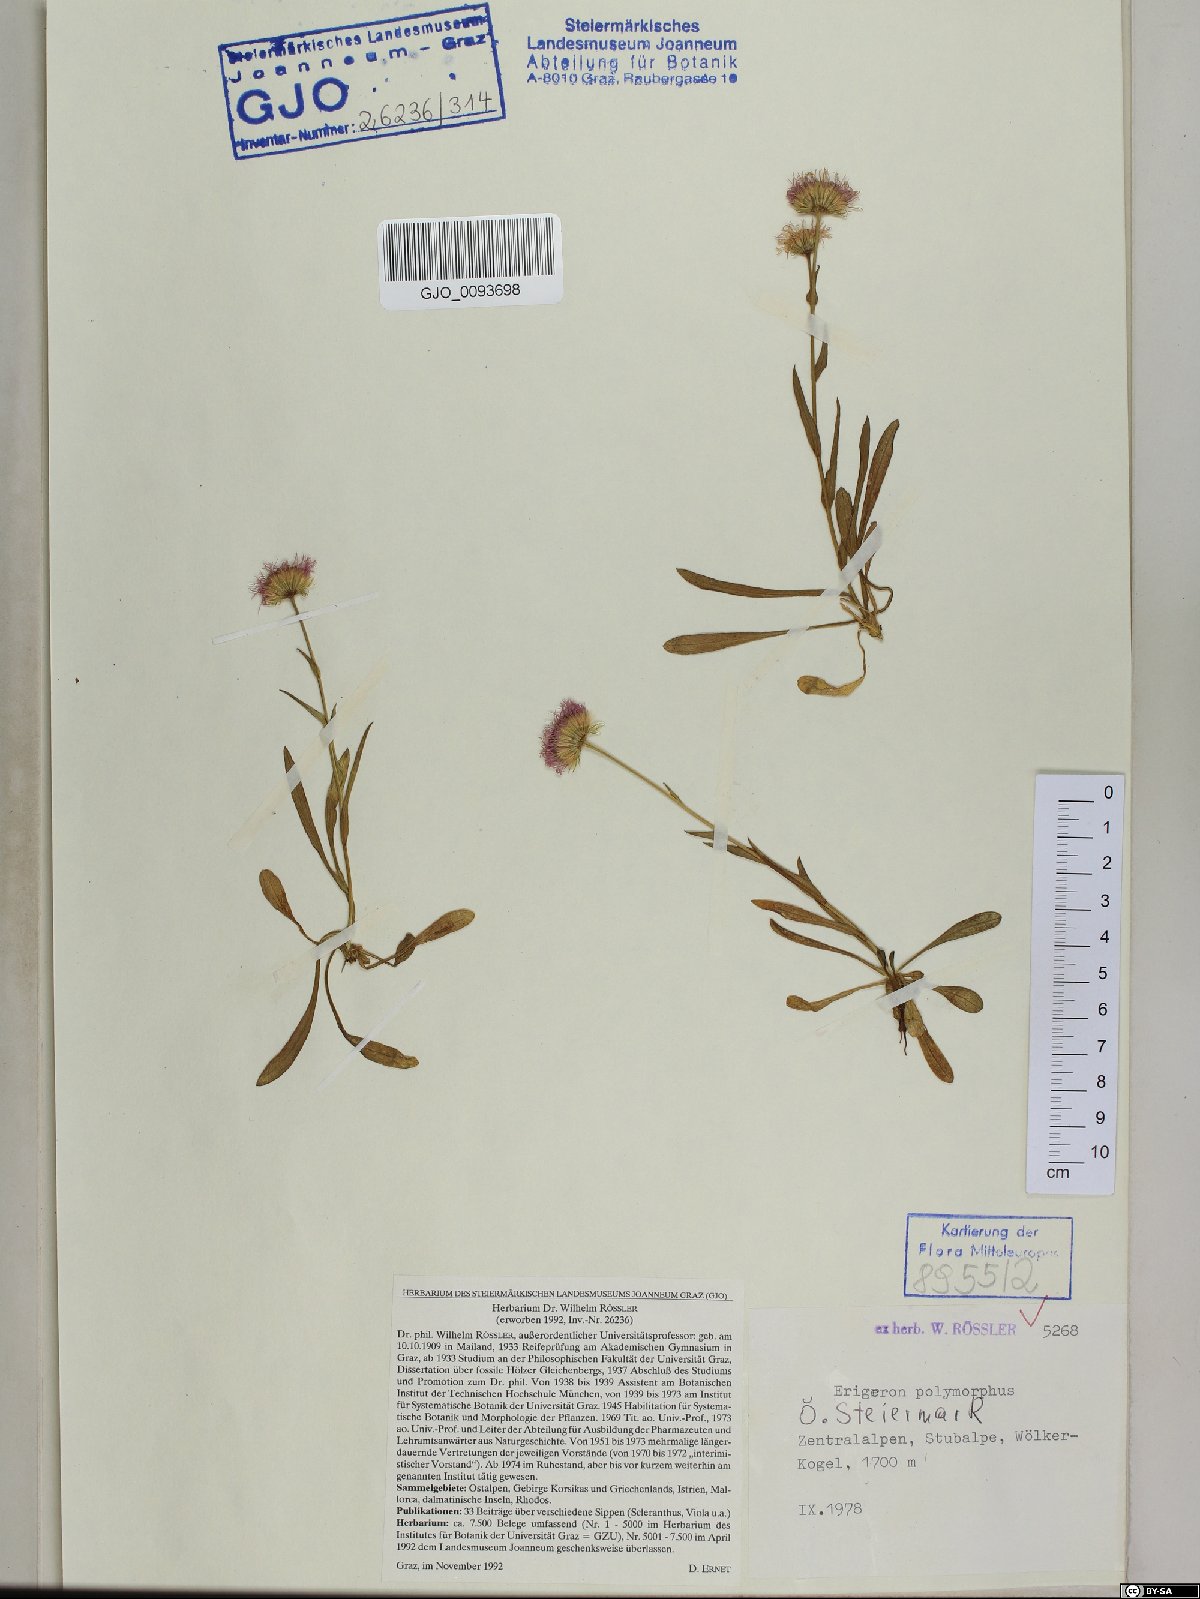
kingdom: Plantae
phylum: Tracheophyta
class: Magnoliopsida
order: Asterales
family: Asteraceae
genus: Erigeron
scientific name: Erigeron alpinus
